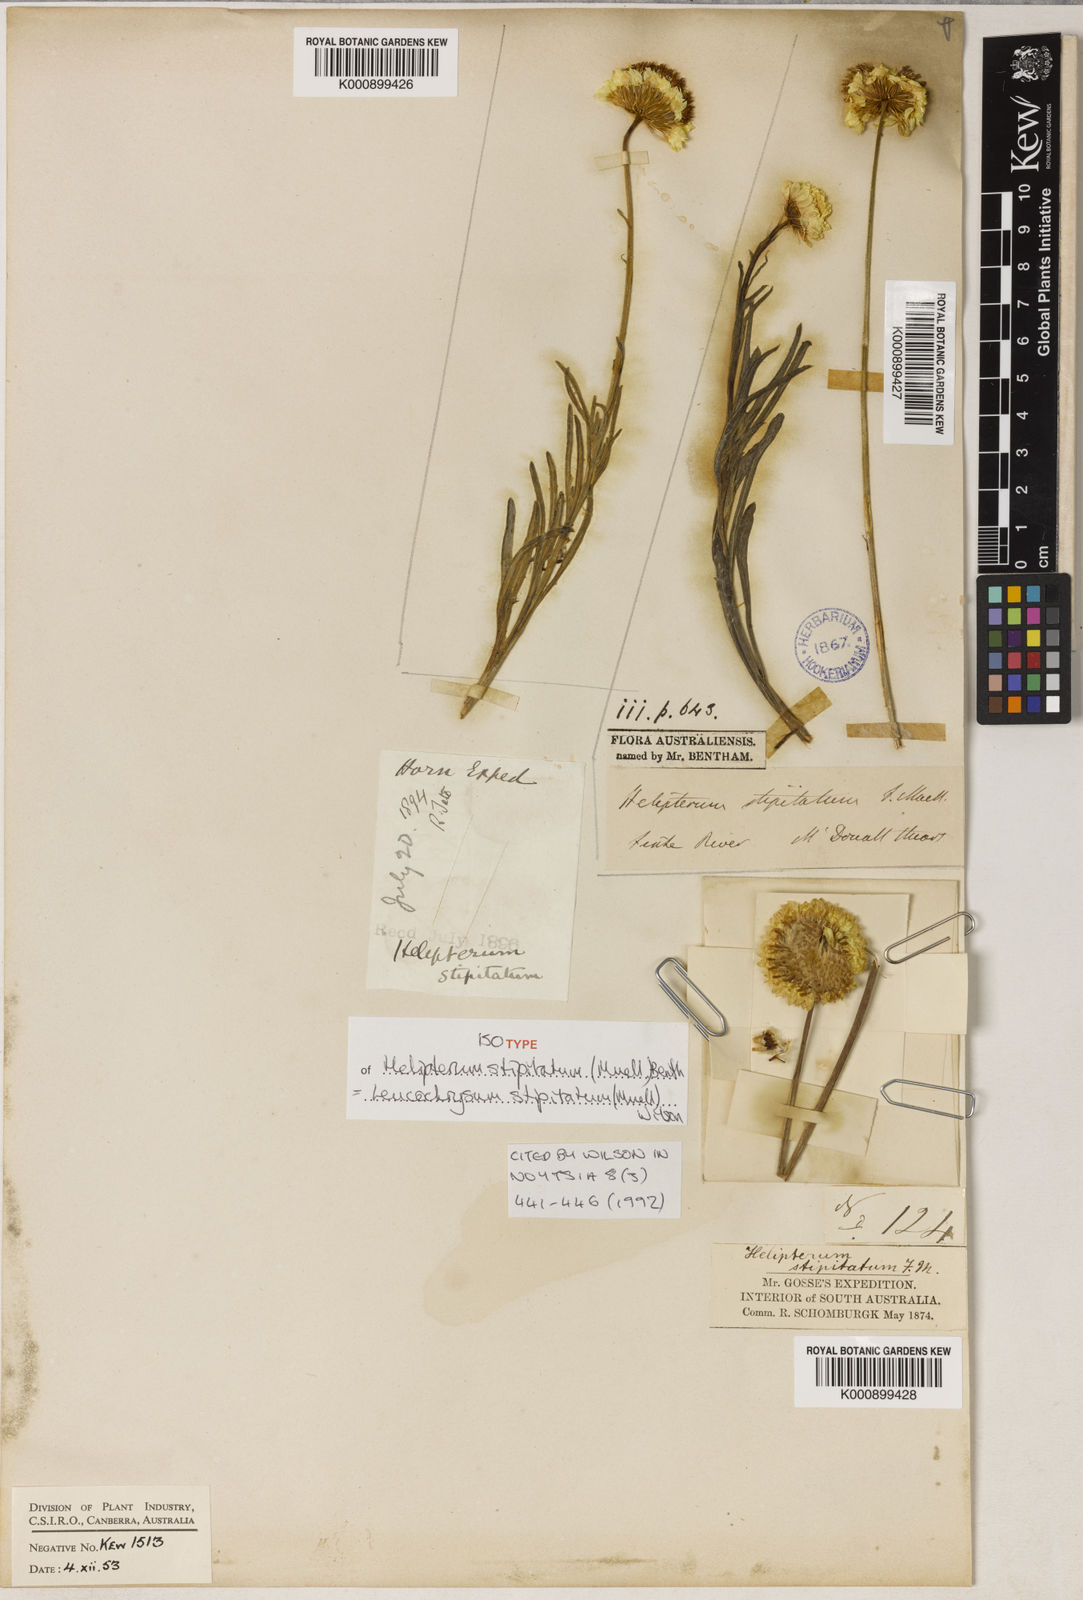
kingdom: Plantae
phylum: Tracheophyta
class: Magnoliopsida
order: Asterales
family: Asteraceae
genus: Leucochrysum
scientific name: Leucochrysum stipitatum
